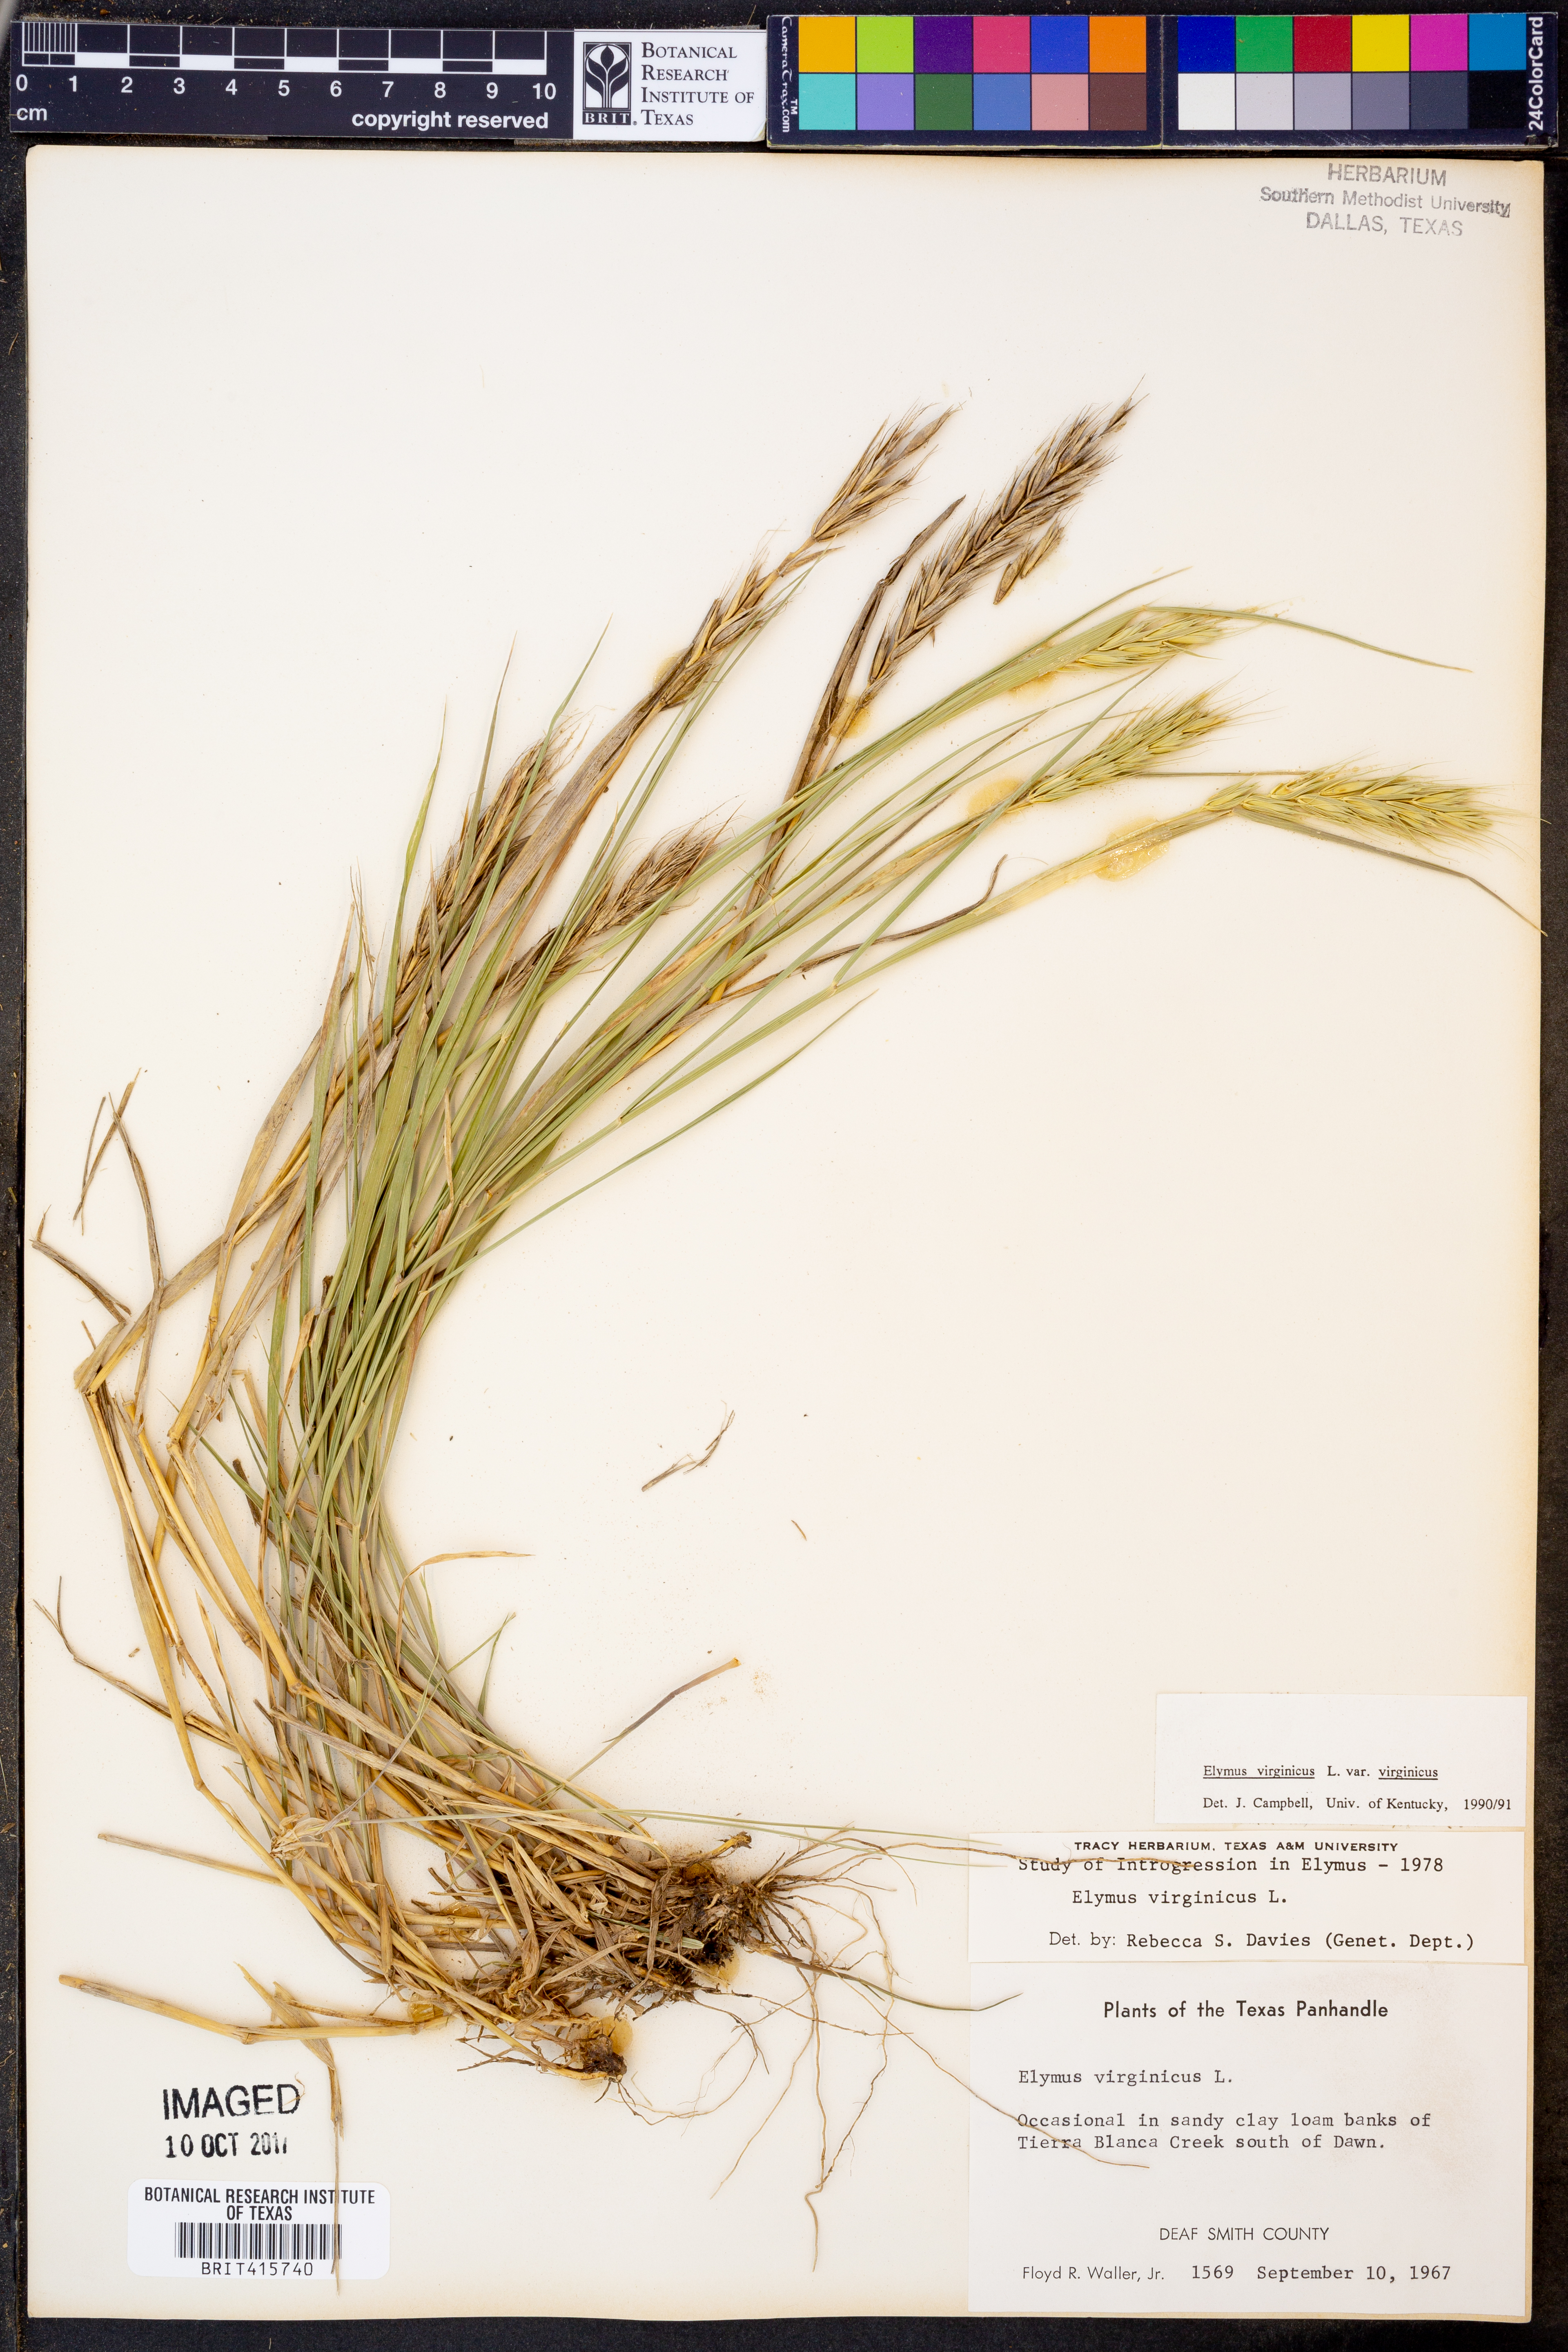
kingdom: Plantae
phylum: Tracheophyta
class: Liliopsida
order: Poales
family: Poaceae
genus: Elymus
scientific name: Elymus virginicus
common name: Common eastern wildrye
